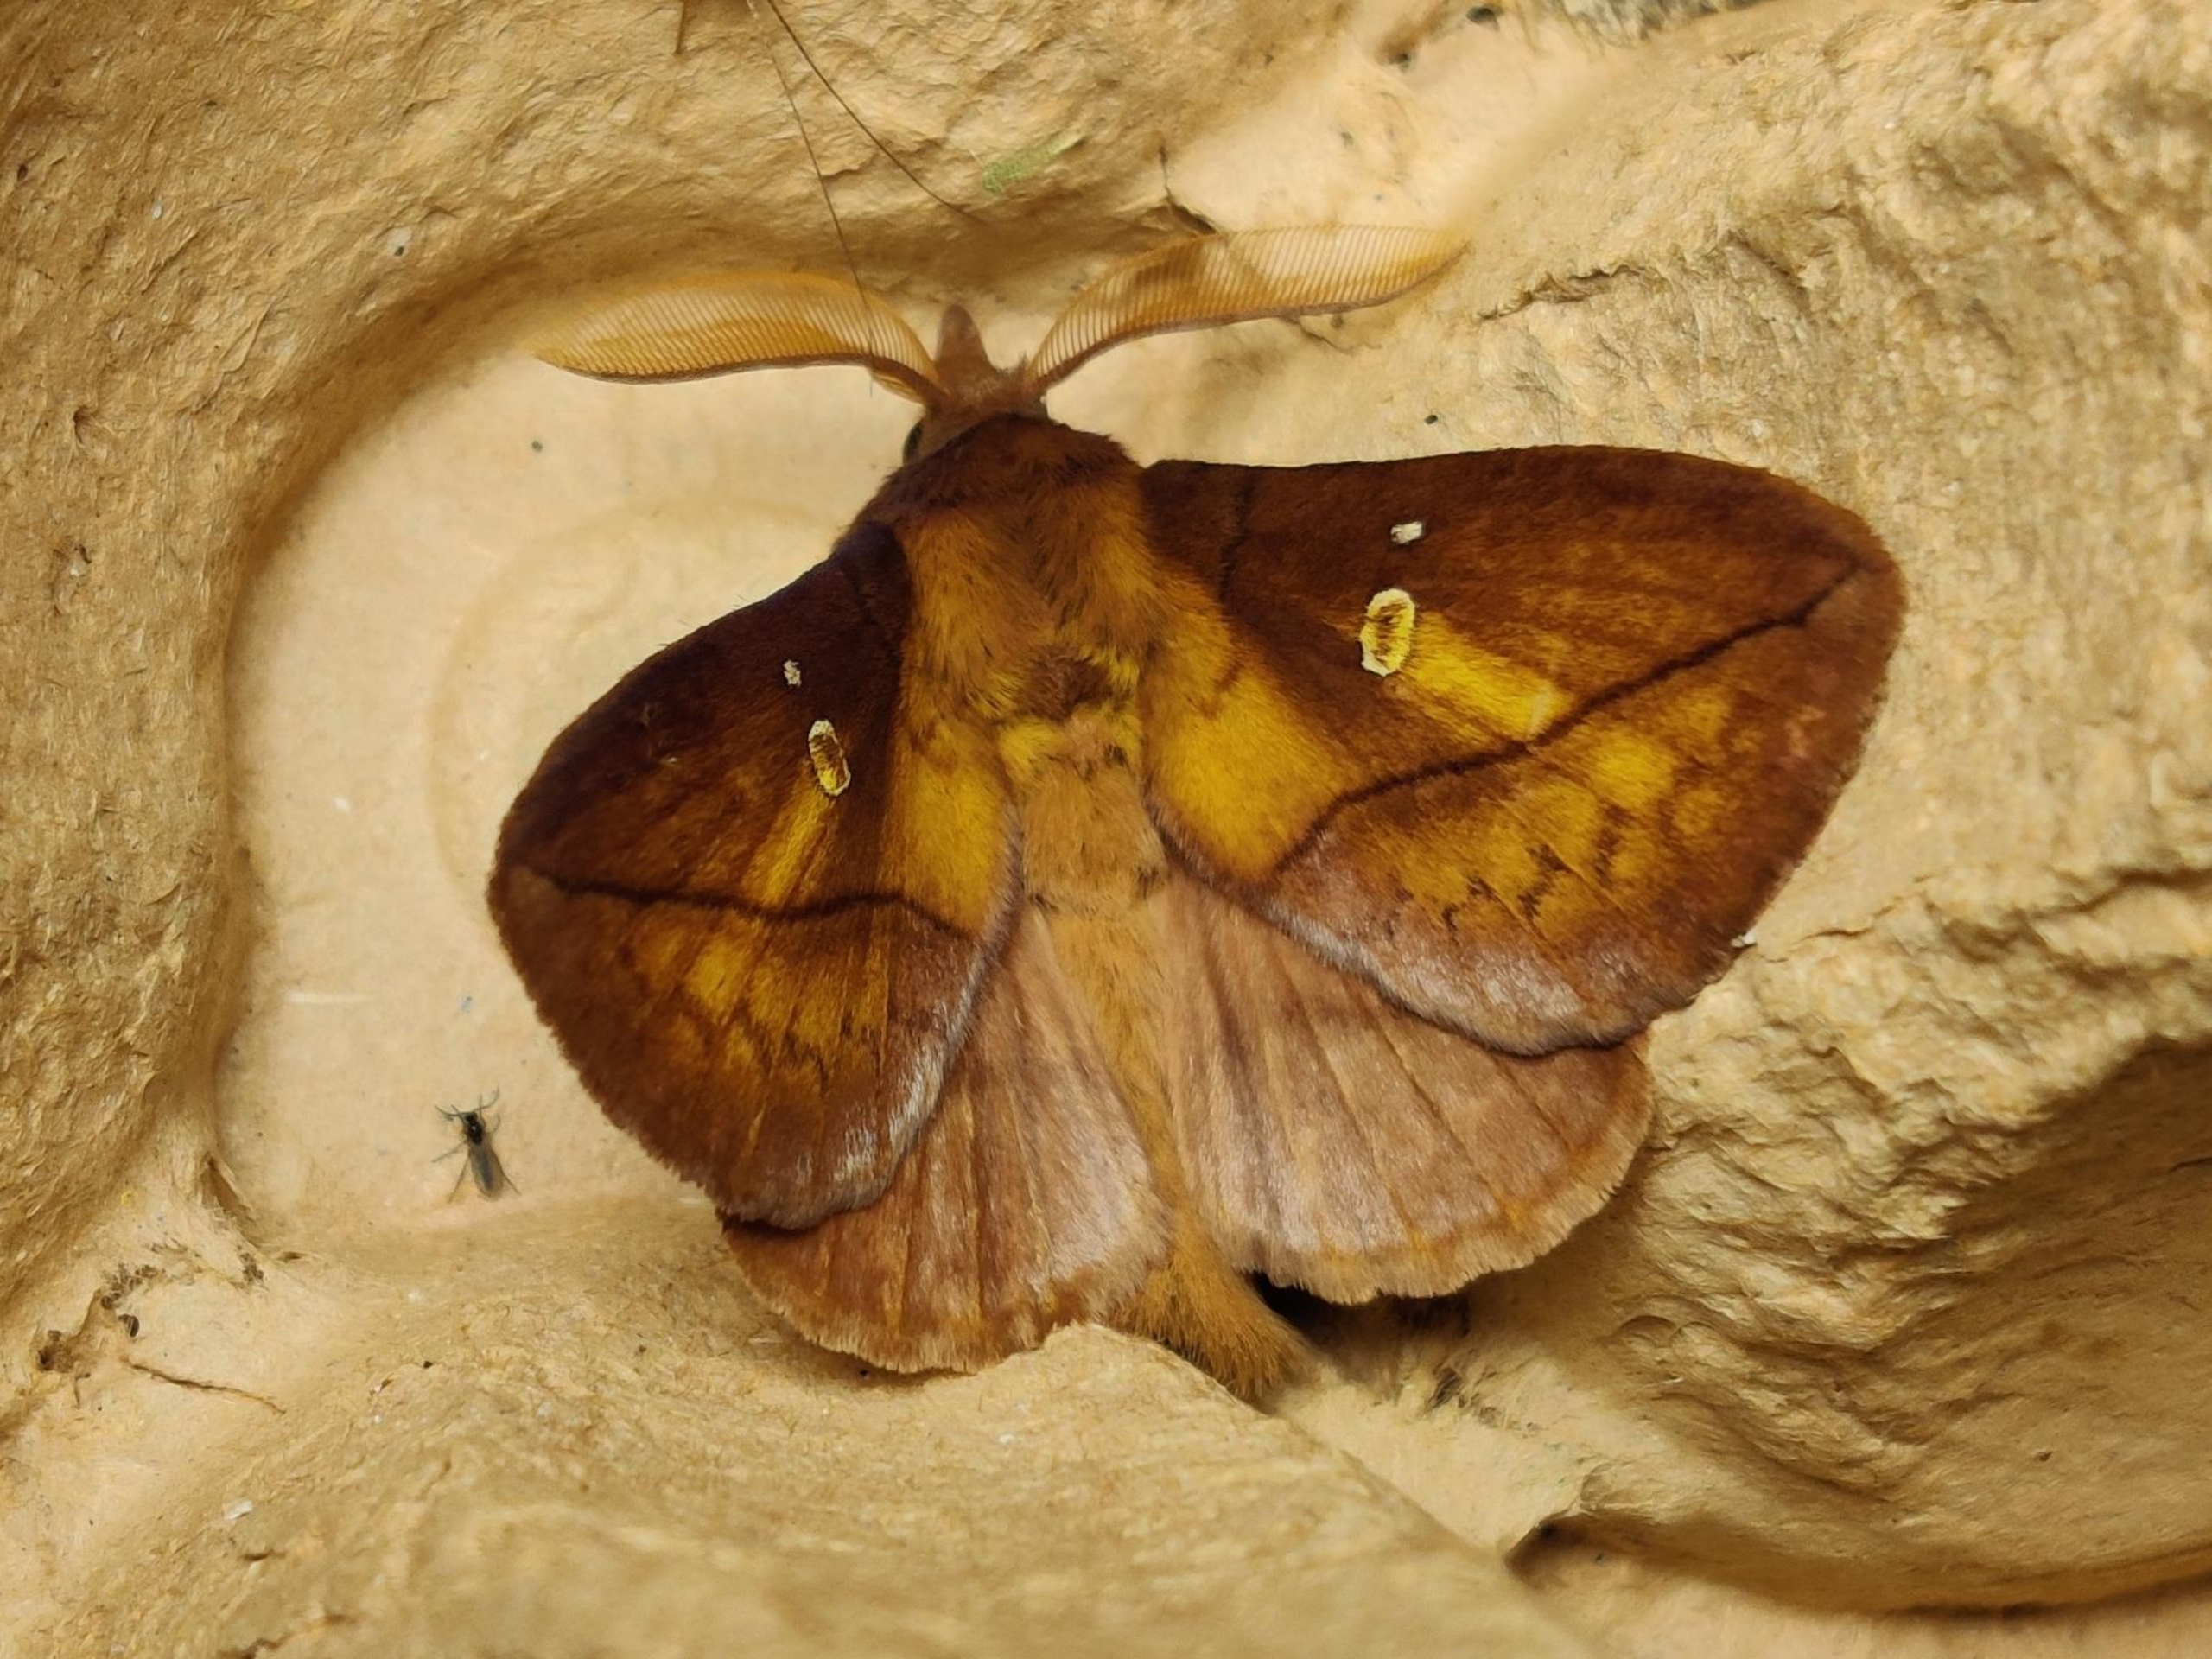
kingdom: Animalia
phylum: Arthropoda
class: Insecta
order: Lepidoptera
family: Lasiocampidae
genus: Euthrix
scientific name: Euthrix potatoria
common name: Græsspinder
